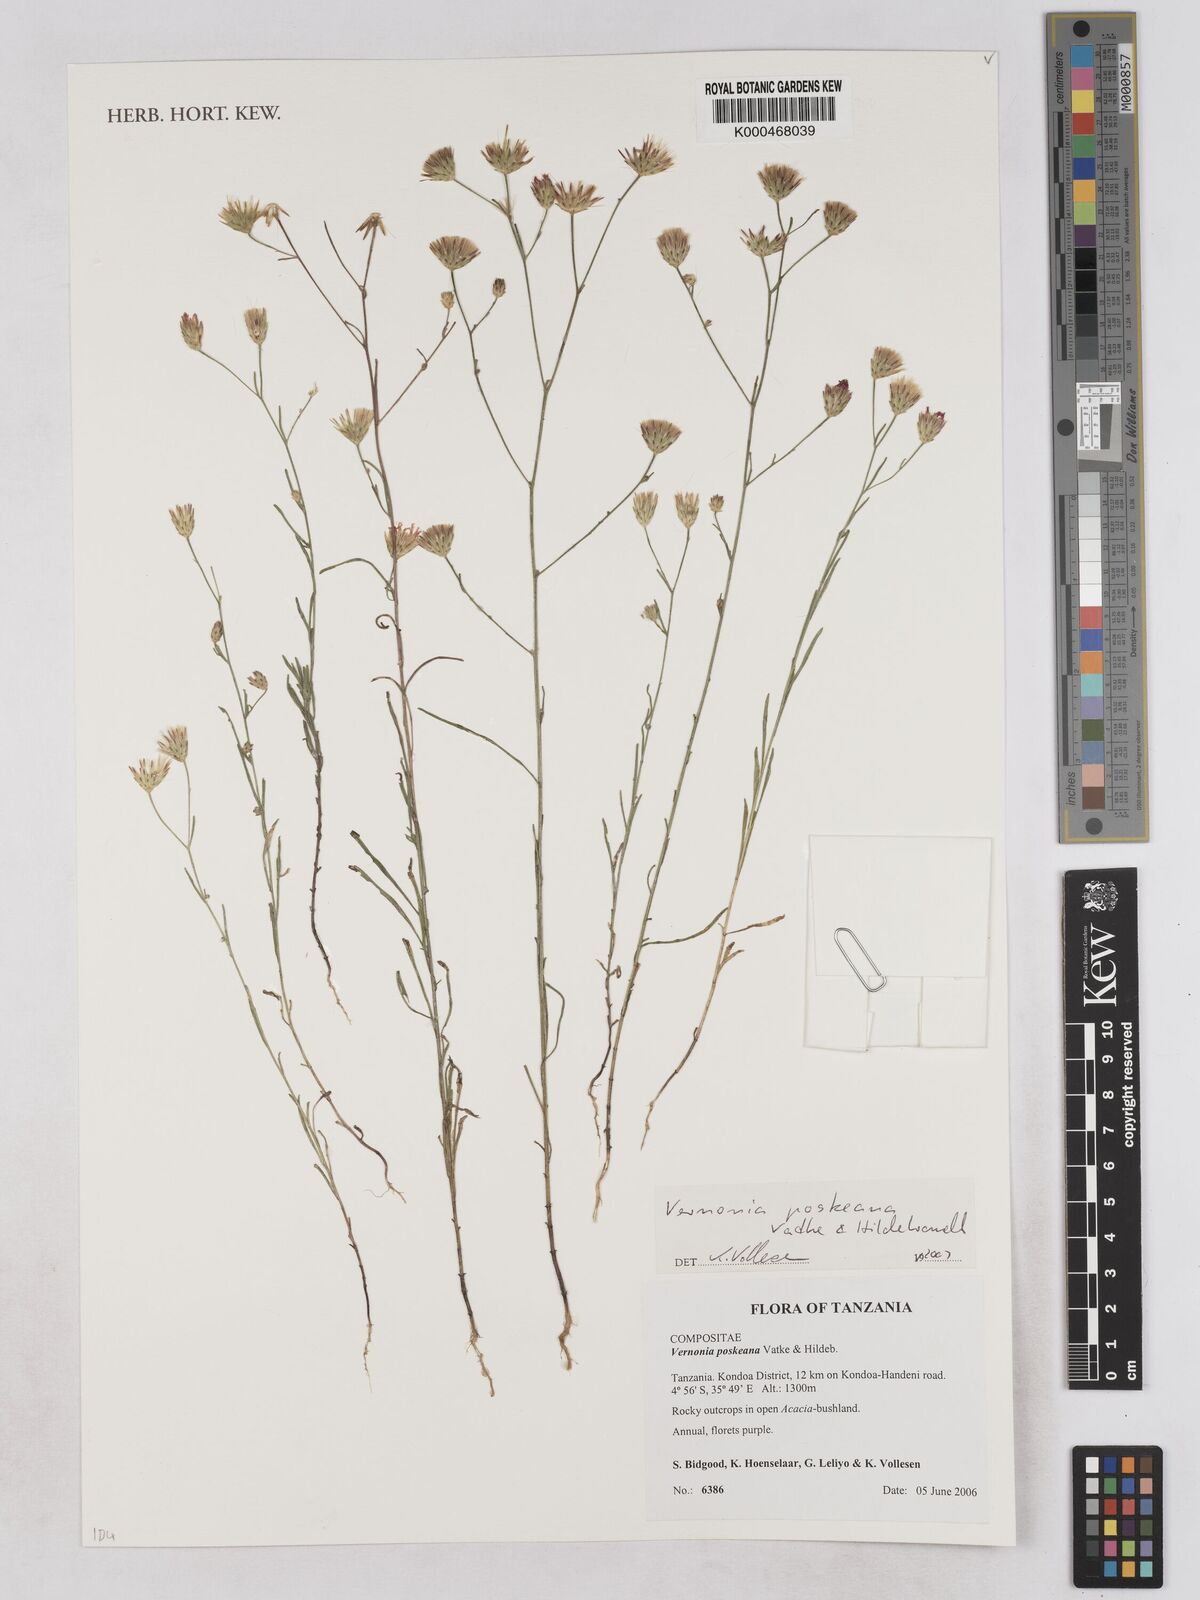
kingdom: Plantae
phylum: Tracheophyta
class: Magnoliopsida
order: Asterales
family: Asteraceae
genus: Crystallopollen
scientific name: Crystallopollen angustifolium
